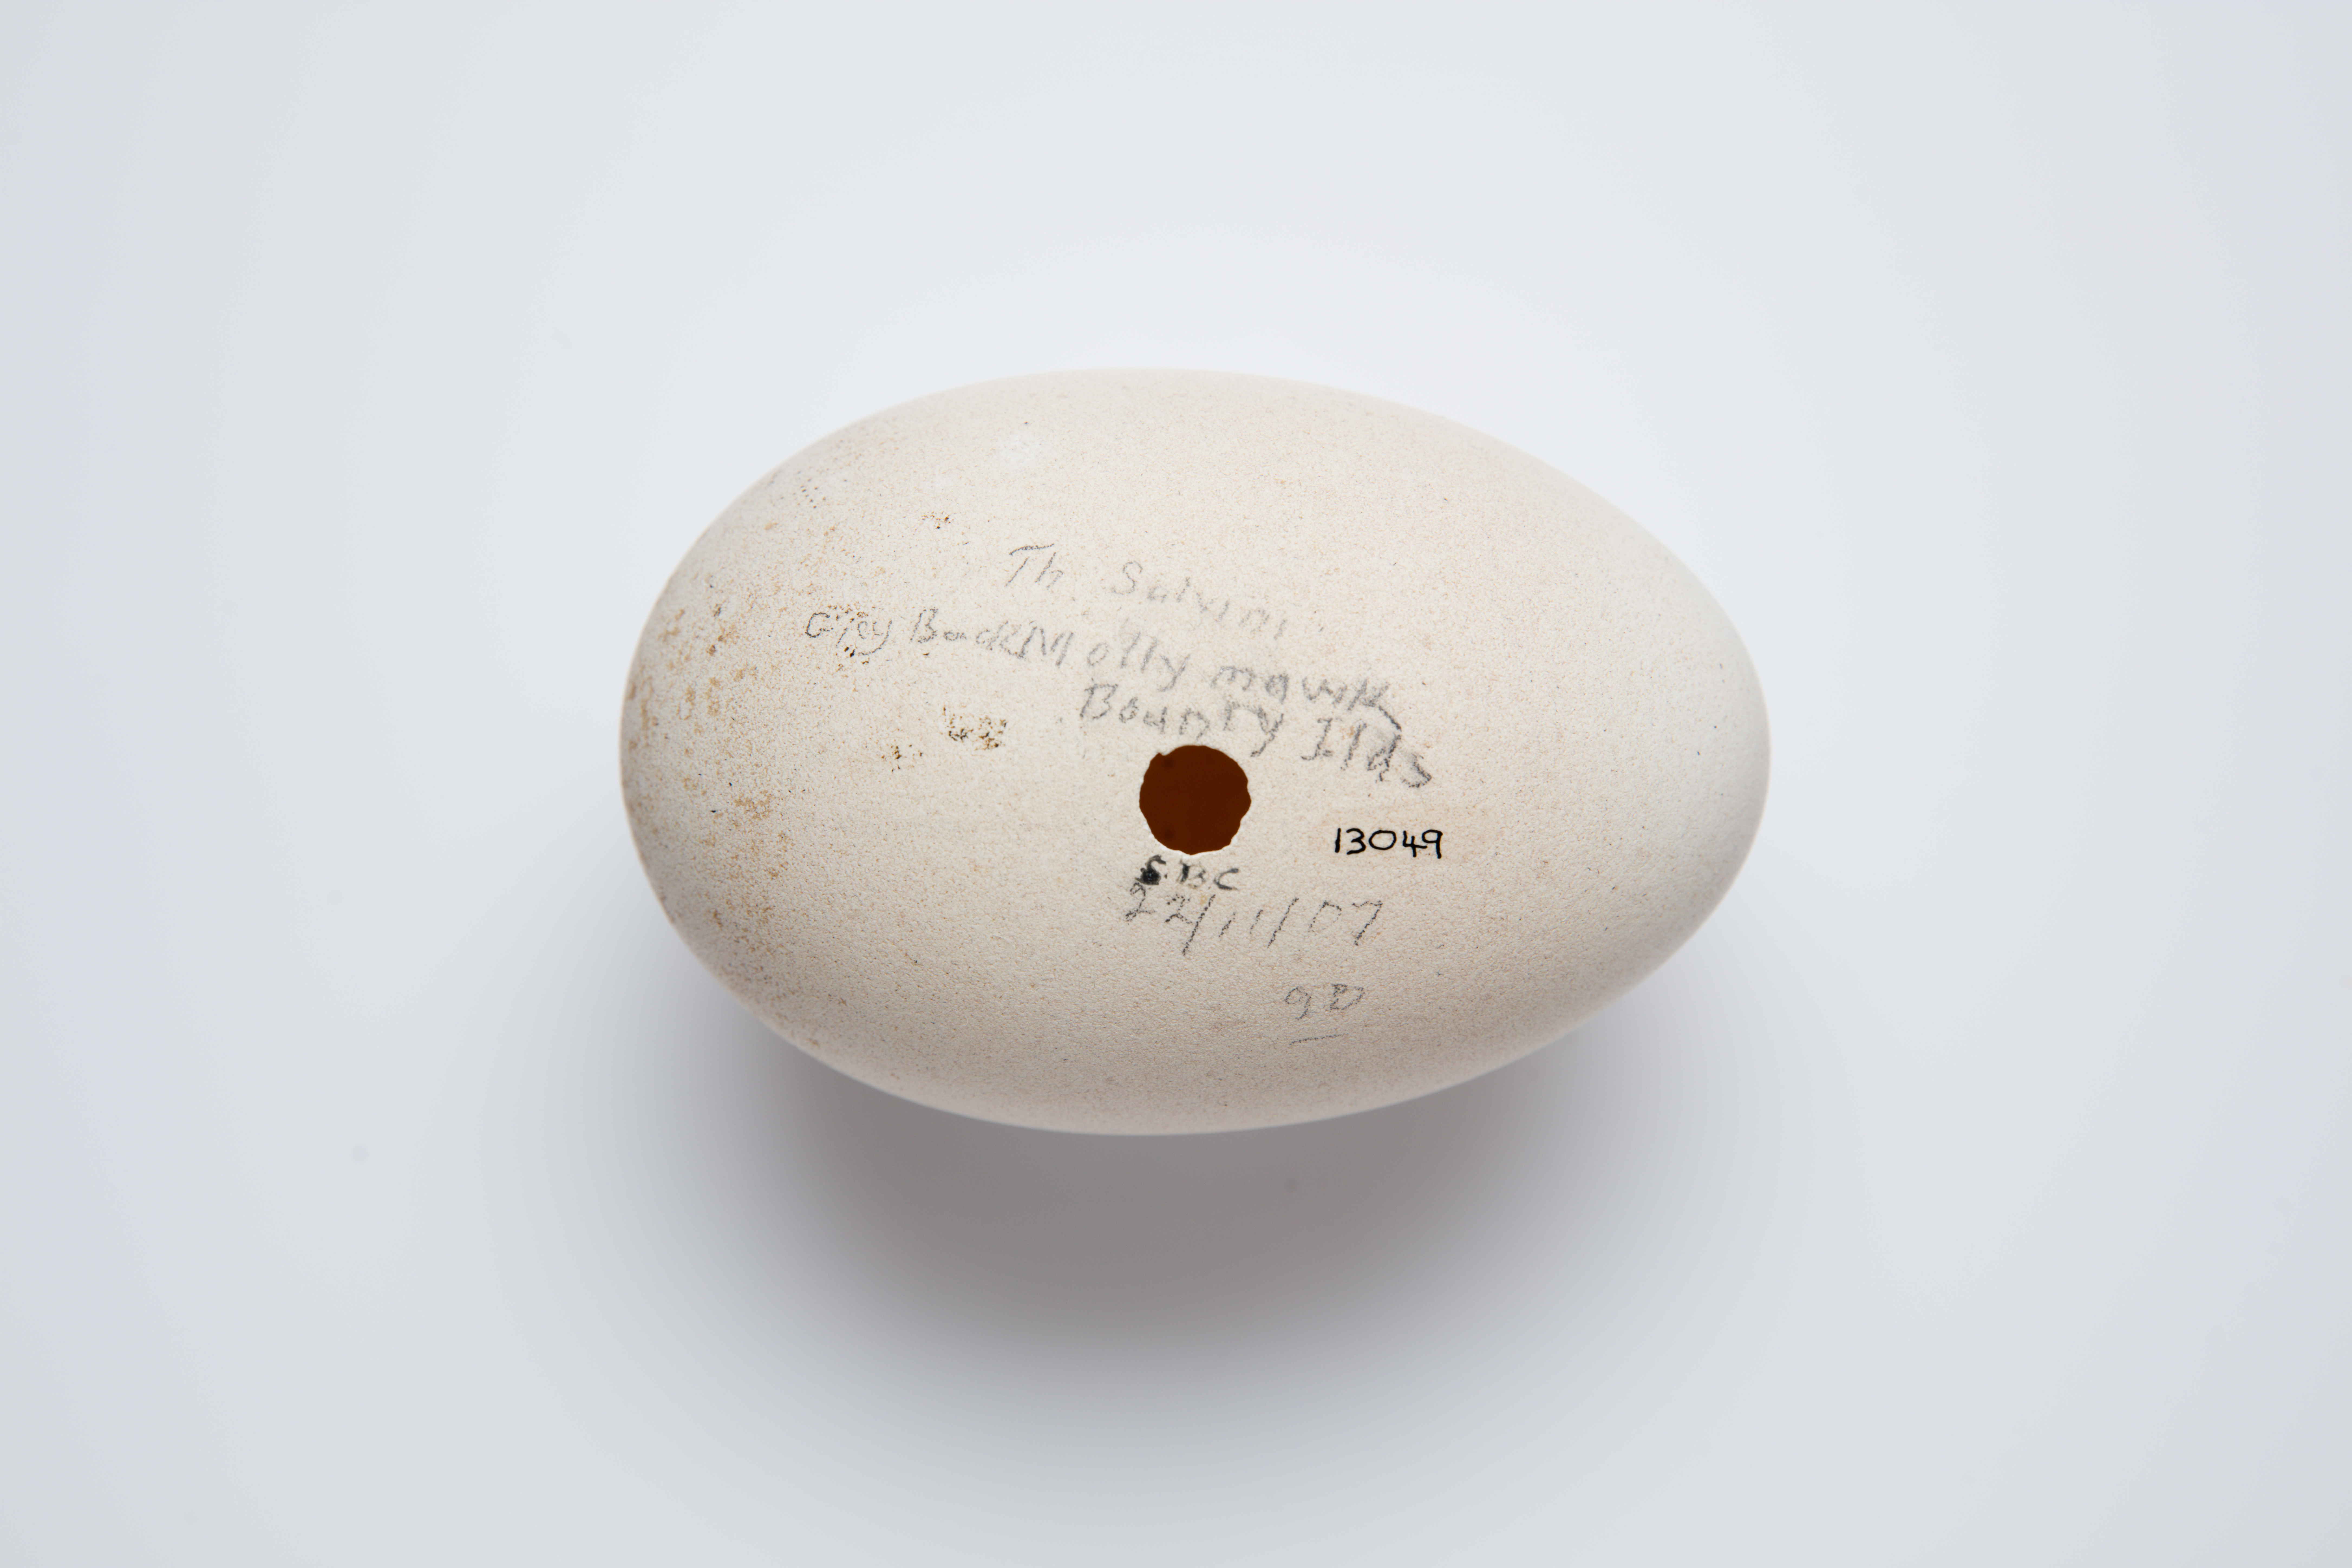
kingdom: Animalia
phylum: Chordata
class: Aves
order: Procellariiformes
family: Diomedeidae
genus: Thalassarche
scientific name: Thalassarche salvini
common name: Salvin's albatross
